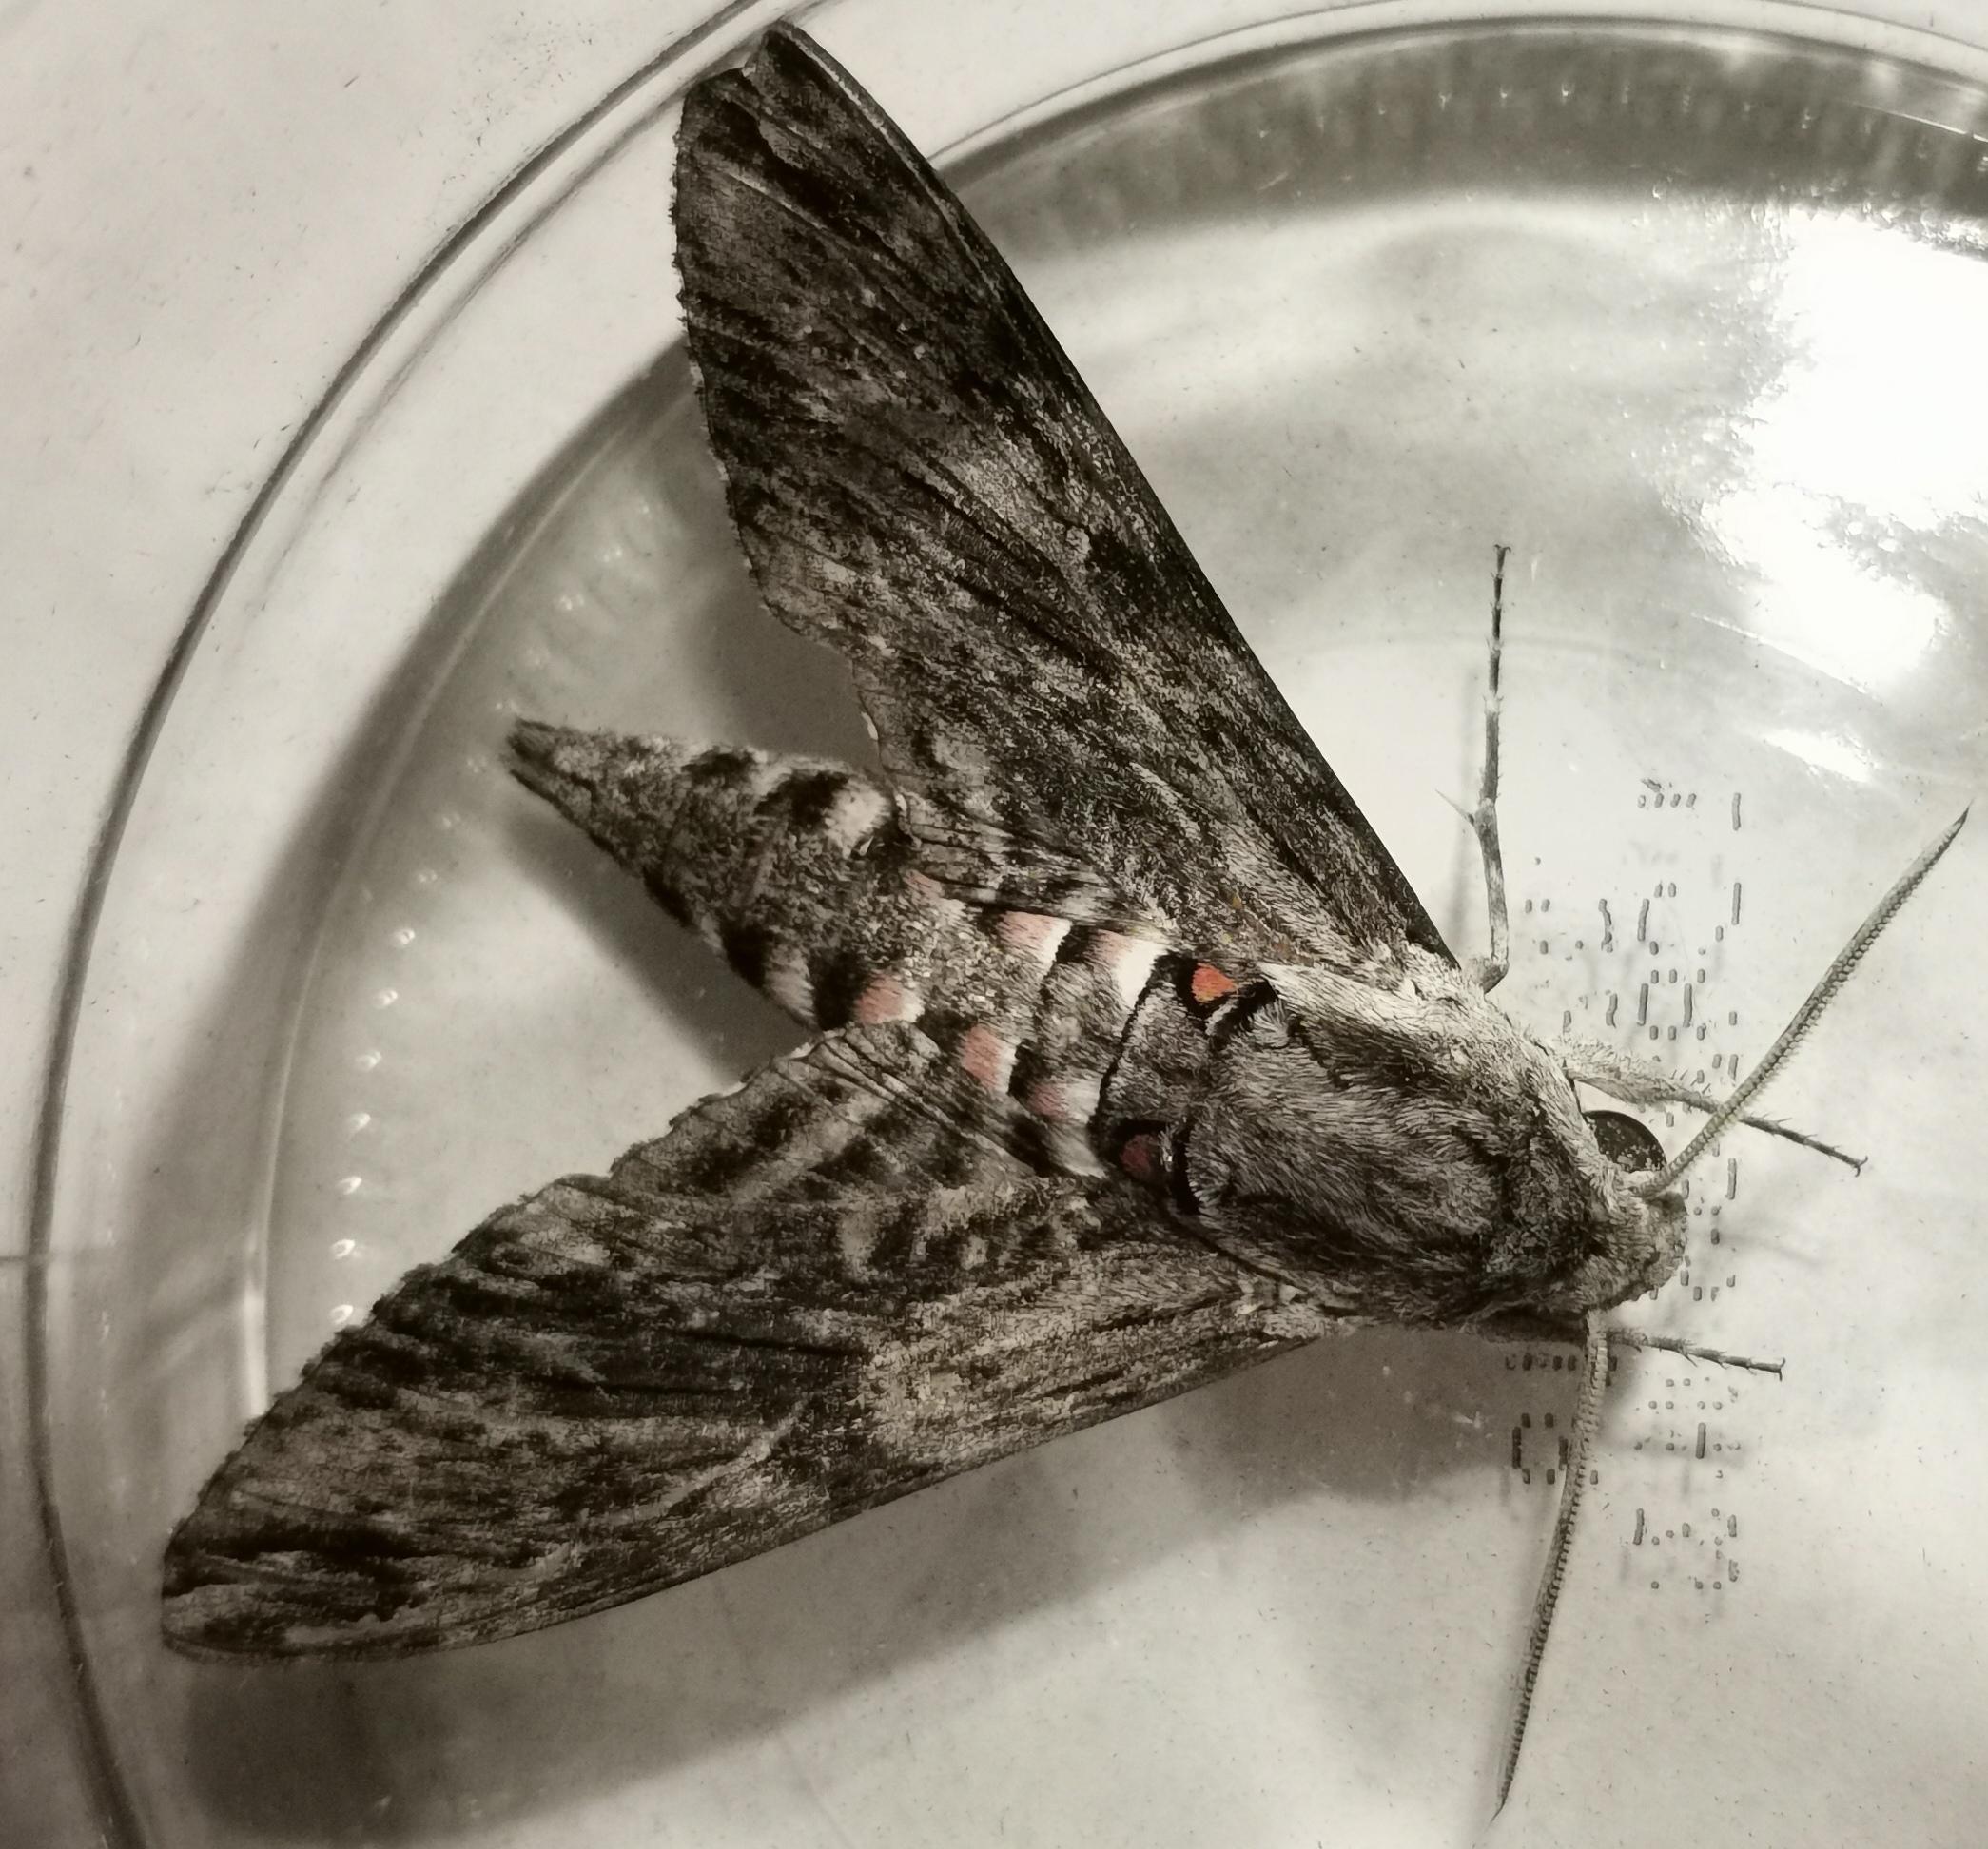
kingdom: Animalia
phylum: Arthropoda
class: Insecta
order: Lepidoptera
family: Sphingidae
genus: Agrius
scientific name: Agrius convolvuli
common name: Snerlesværmer
